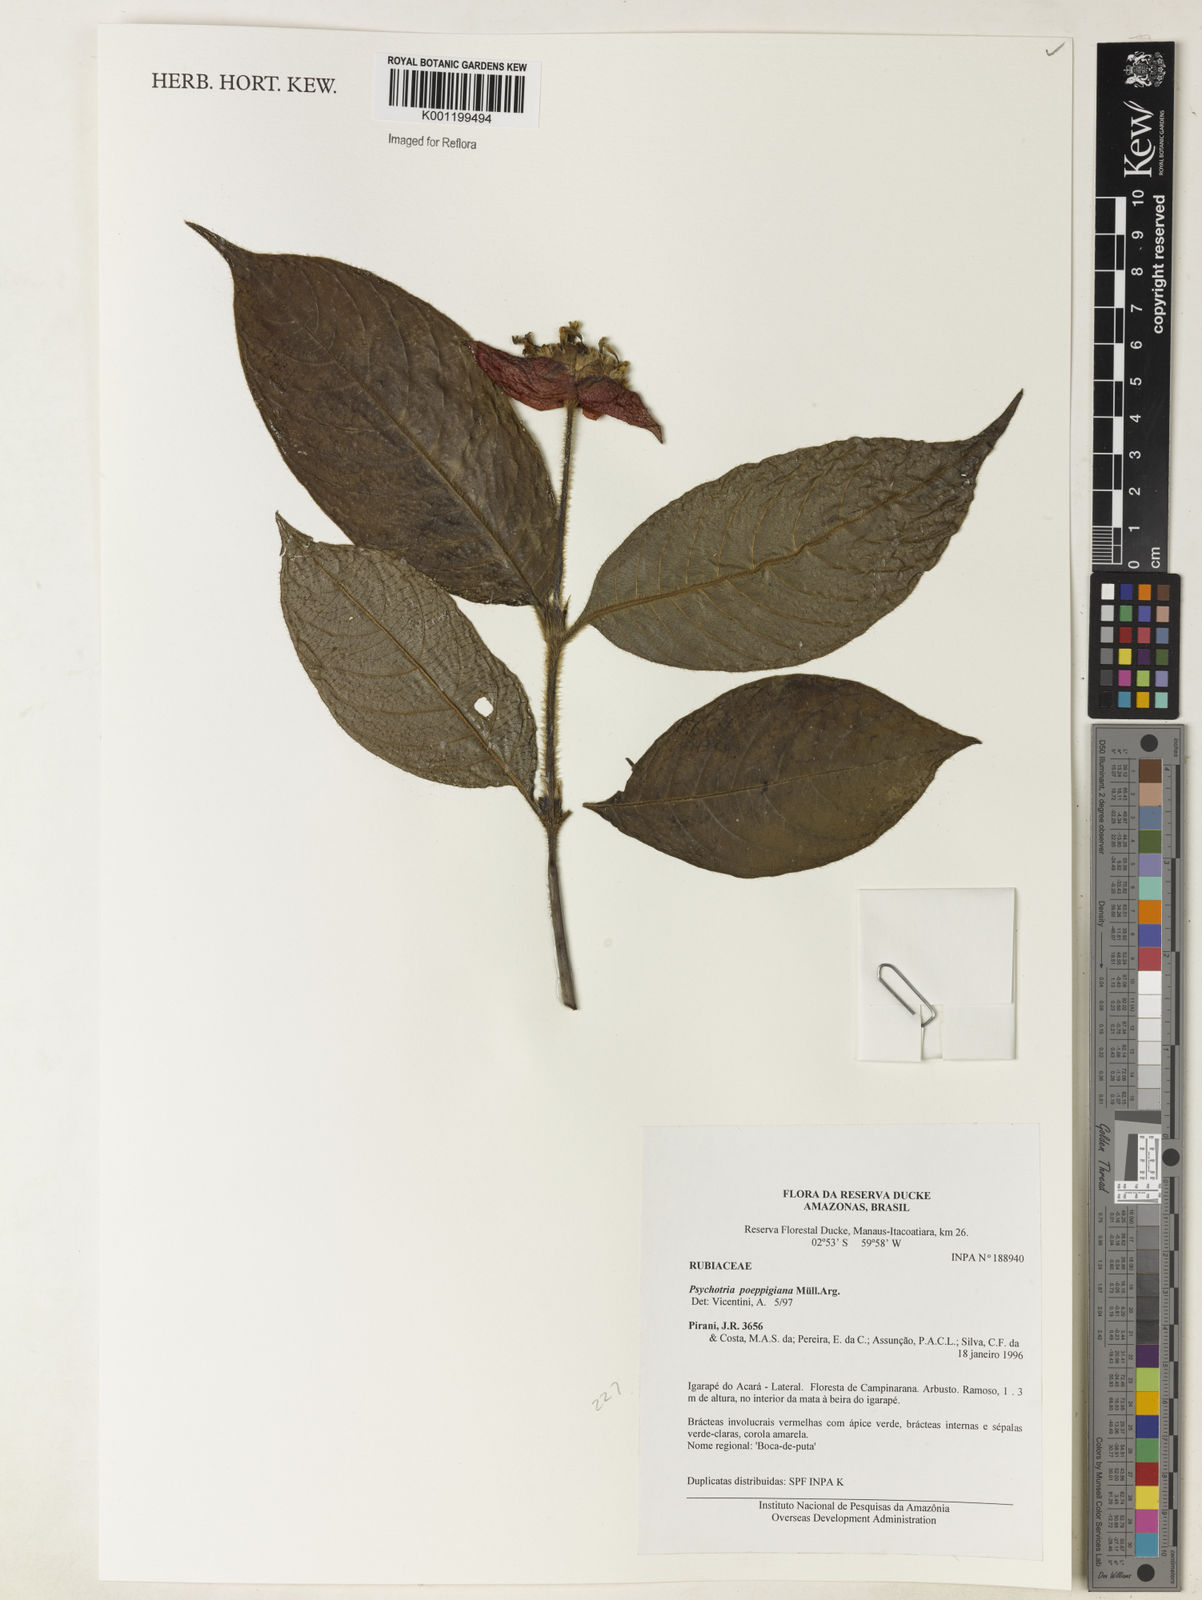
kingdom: Plantae
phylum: Tracheophyta
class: Magnoliopsida
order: Gentianales
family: Rubiaceae
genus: Psychotria
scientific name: Psychotria
